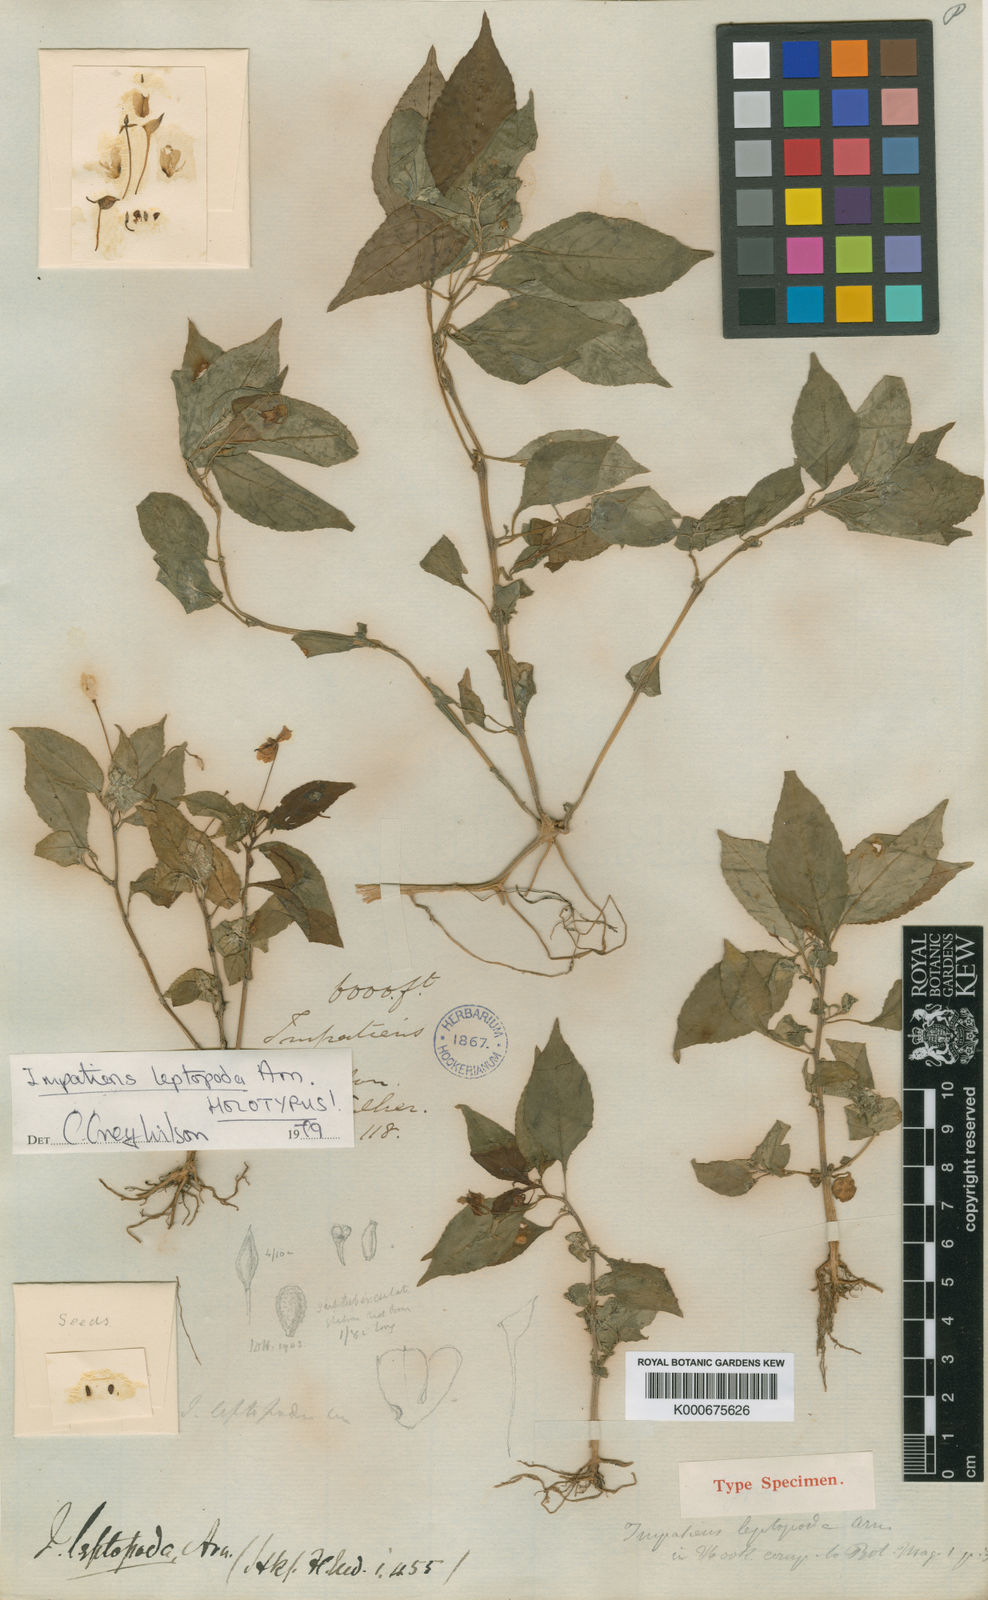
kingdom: Plantae
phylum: Tracheophyta
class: Magnoliopsida
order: Ericales
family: Balsaminaceae
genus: Impatiens
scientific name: Impatiens leptopoda
